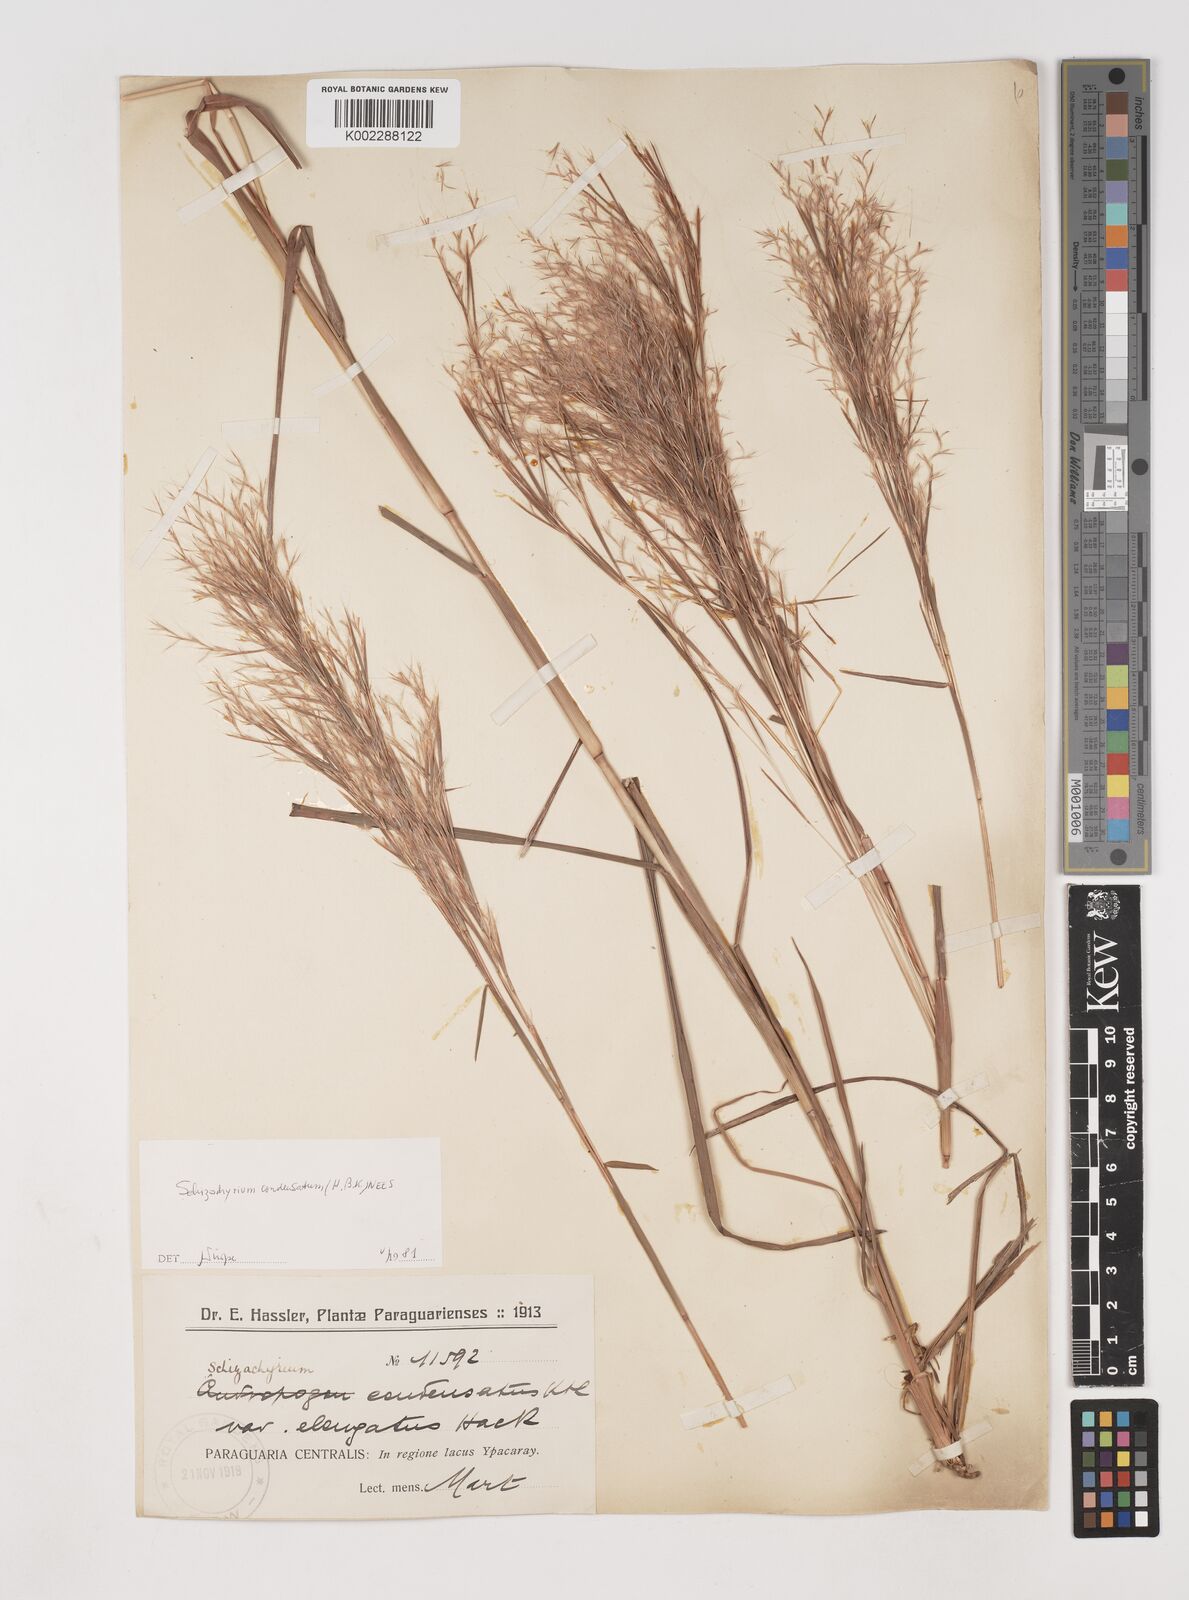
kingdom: Plantae
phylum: Tracheophyta
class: Liliopsida
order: Poales
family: Poaceae
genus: Schizachyrium
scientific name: Schizachyrium condensatum
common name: Bush beardgrass
